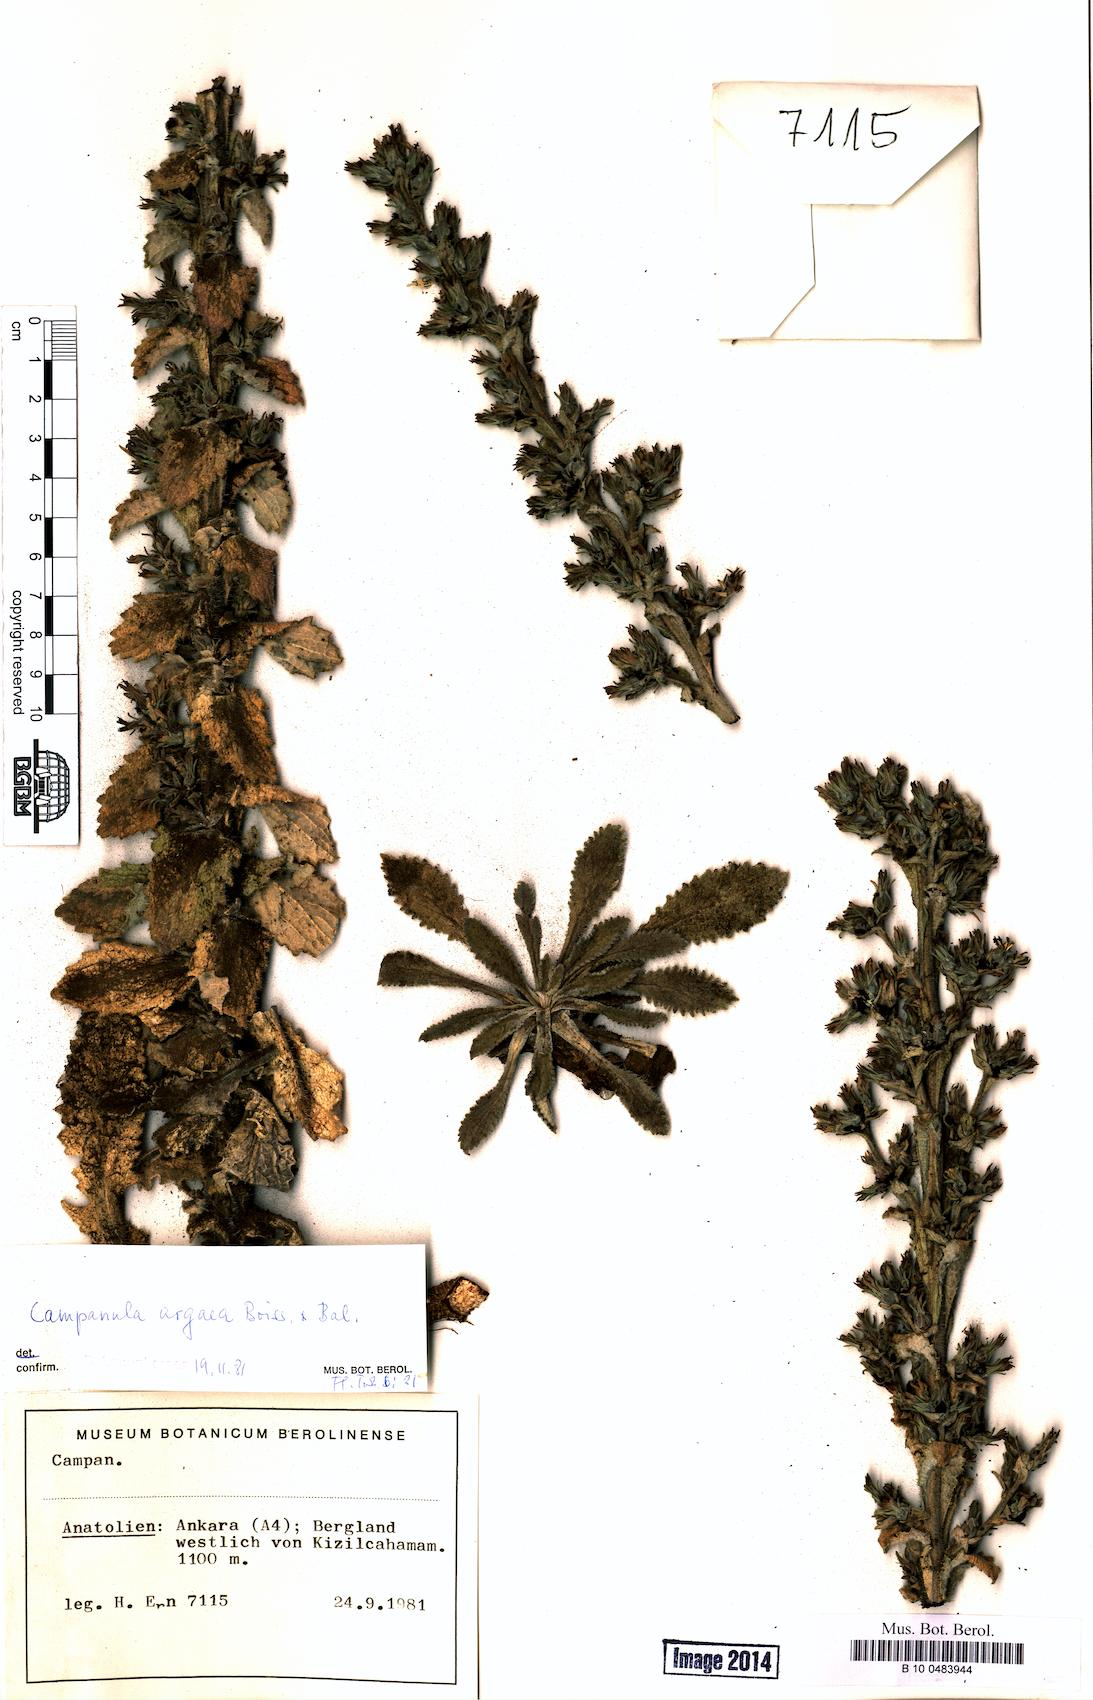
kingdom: Plantae
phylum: Tracheophyta
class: Magnoliopsida
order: Asterales
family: Campanulaceae
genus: Campanula
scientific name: Campanula ajugifolia
